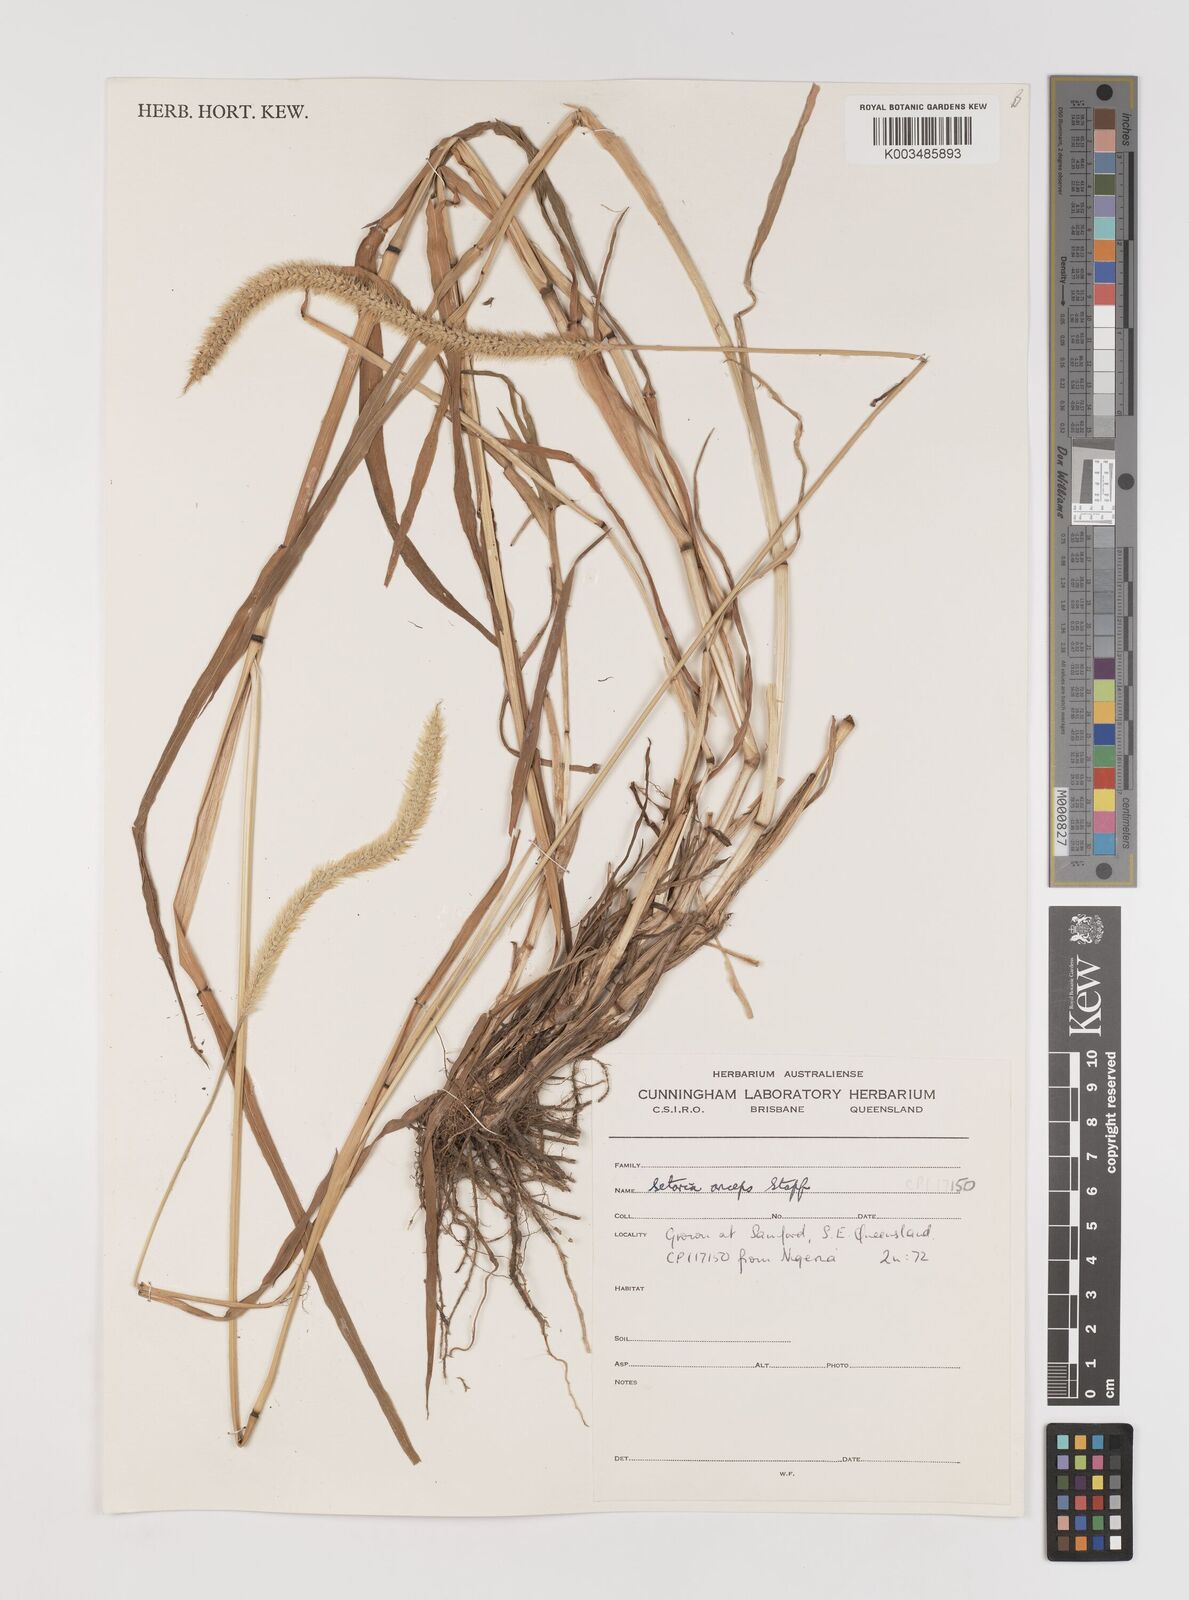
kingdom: Plantae
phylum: Tracheophyta
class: Liliopsida
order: Poales
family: Poaceae
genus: Setaria
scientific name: Setaria sphacelata
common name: African bristlegrass
